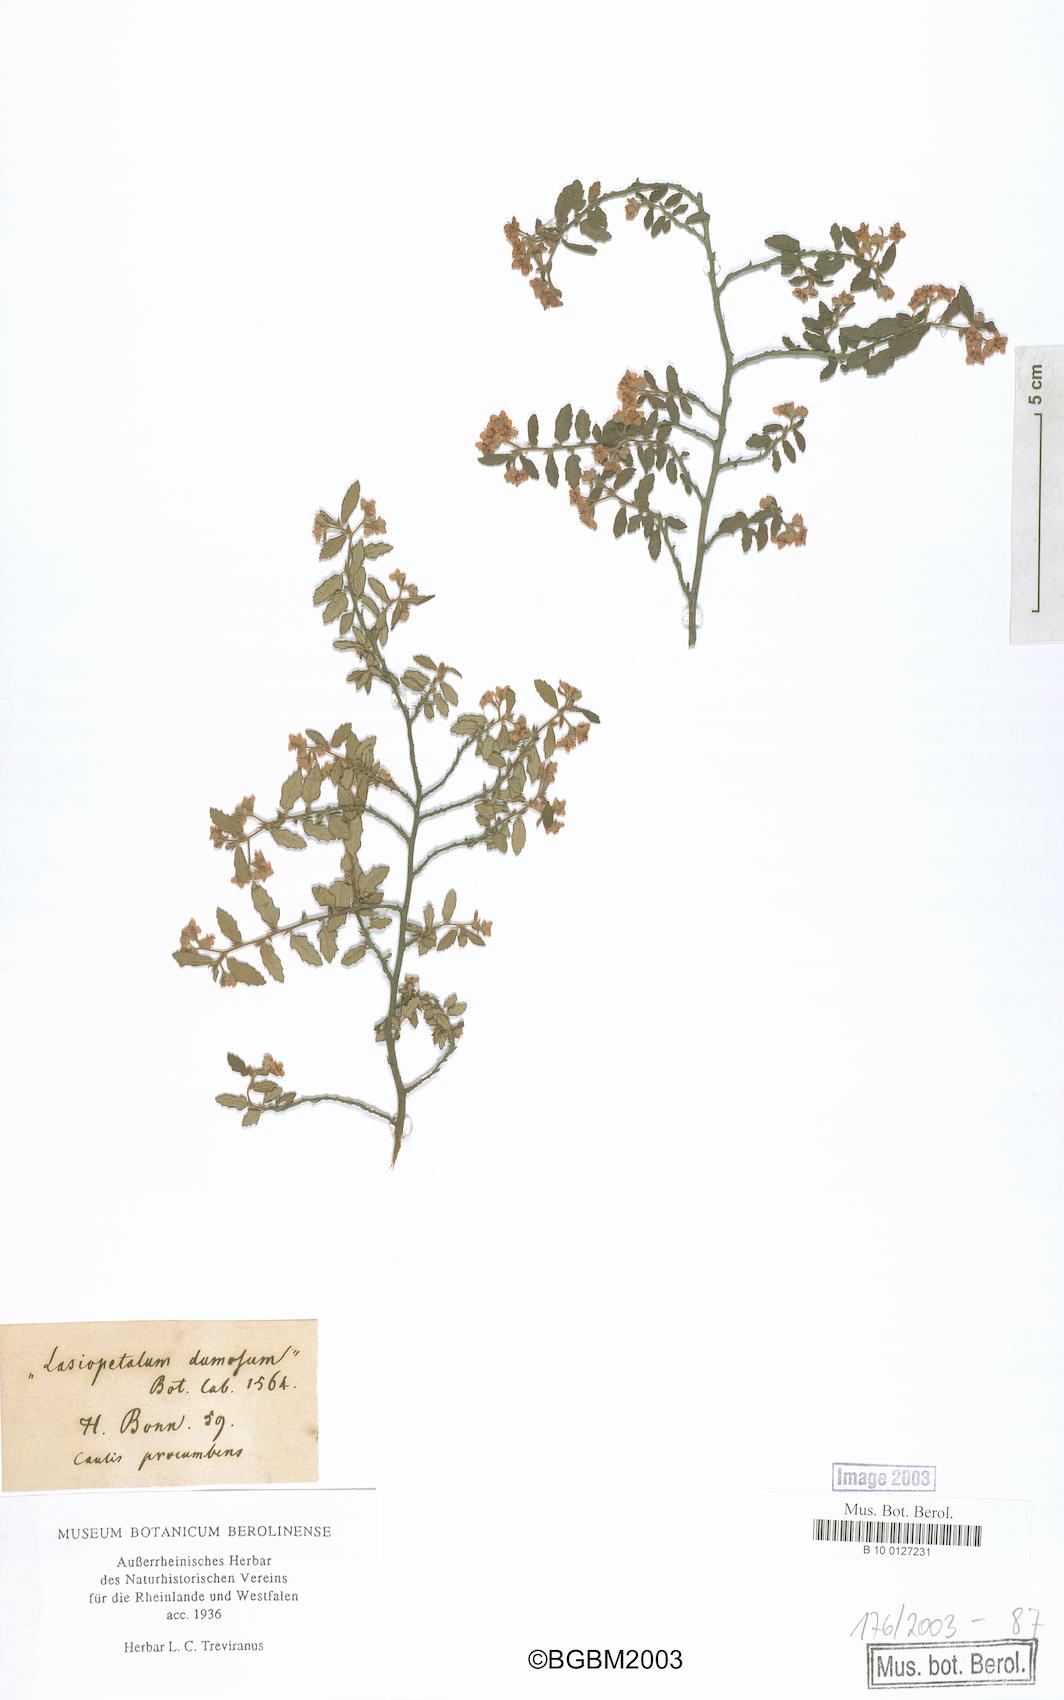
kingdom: Plantae
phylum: Tracheophyta
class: Magnoliopsida
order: Malvales
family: Malvaceae
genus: Commersonia
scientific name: Commersonia hermanniifolia
